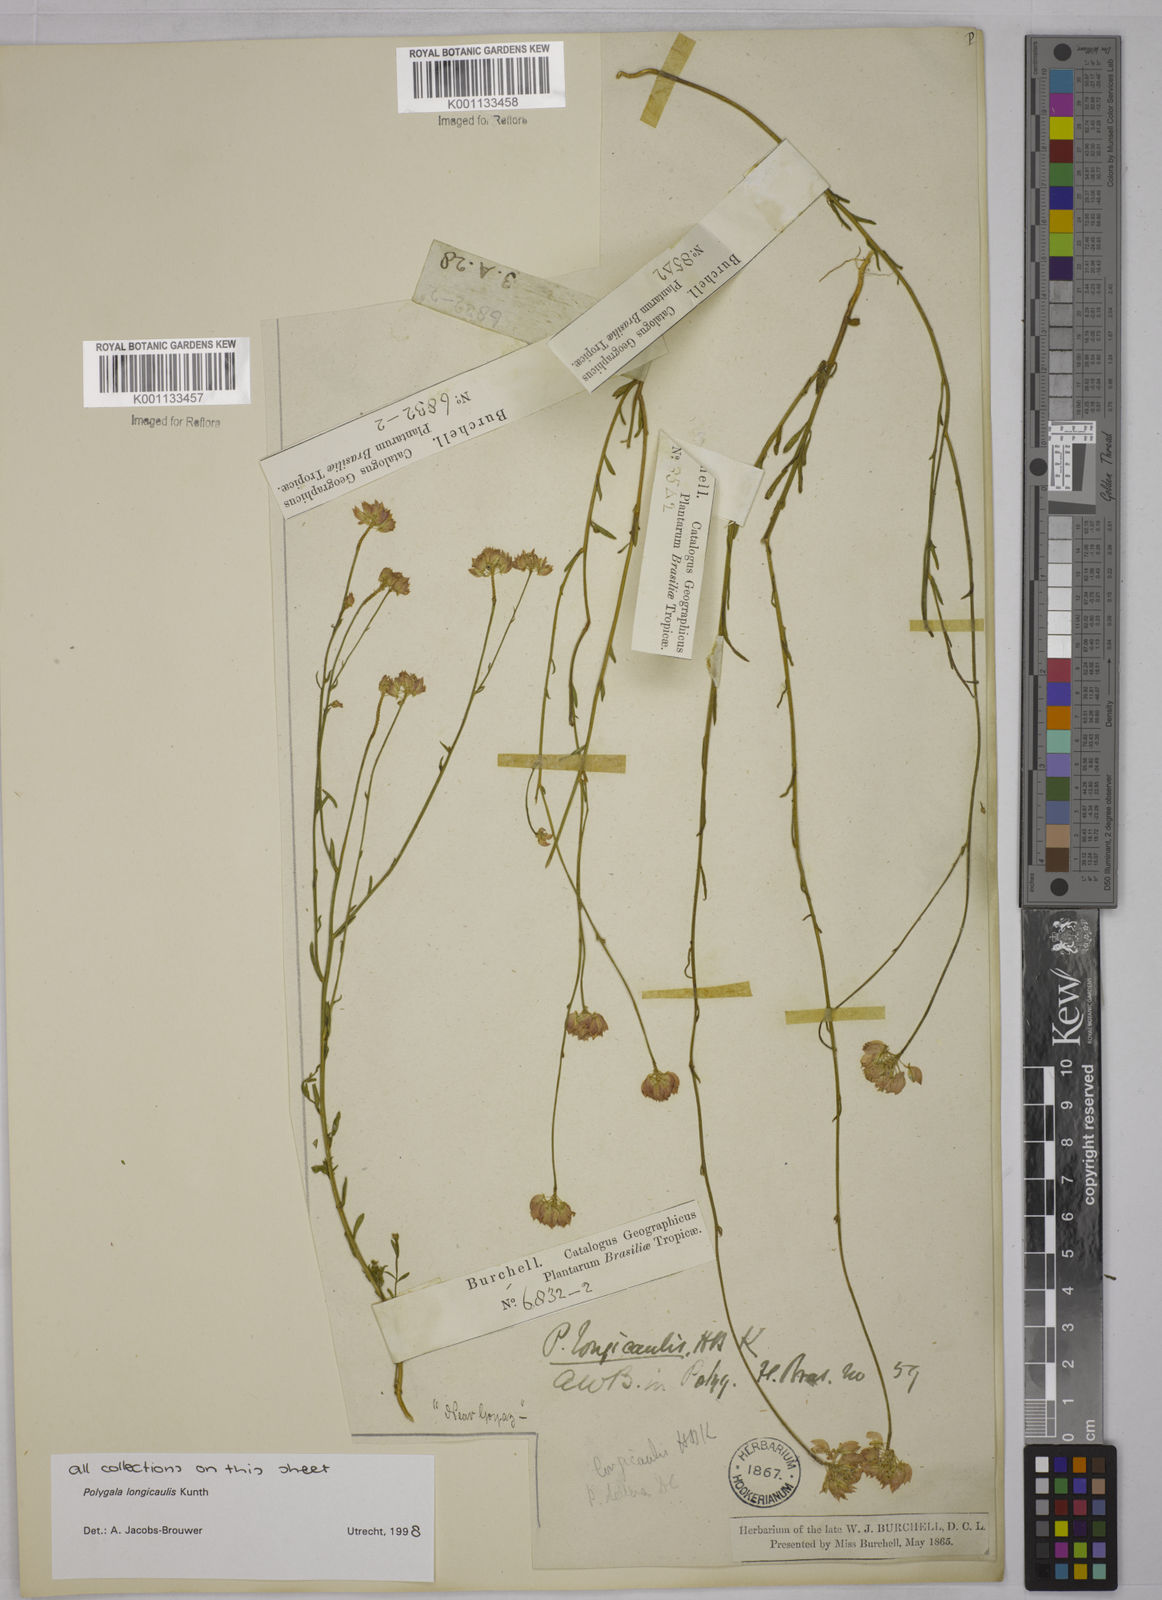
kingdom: Plantae
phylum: Tracheophyta
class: Magnoliopsida
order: Fabales
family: Polygalaceae
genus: Polygala
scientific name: Polygala longicaulis
